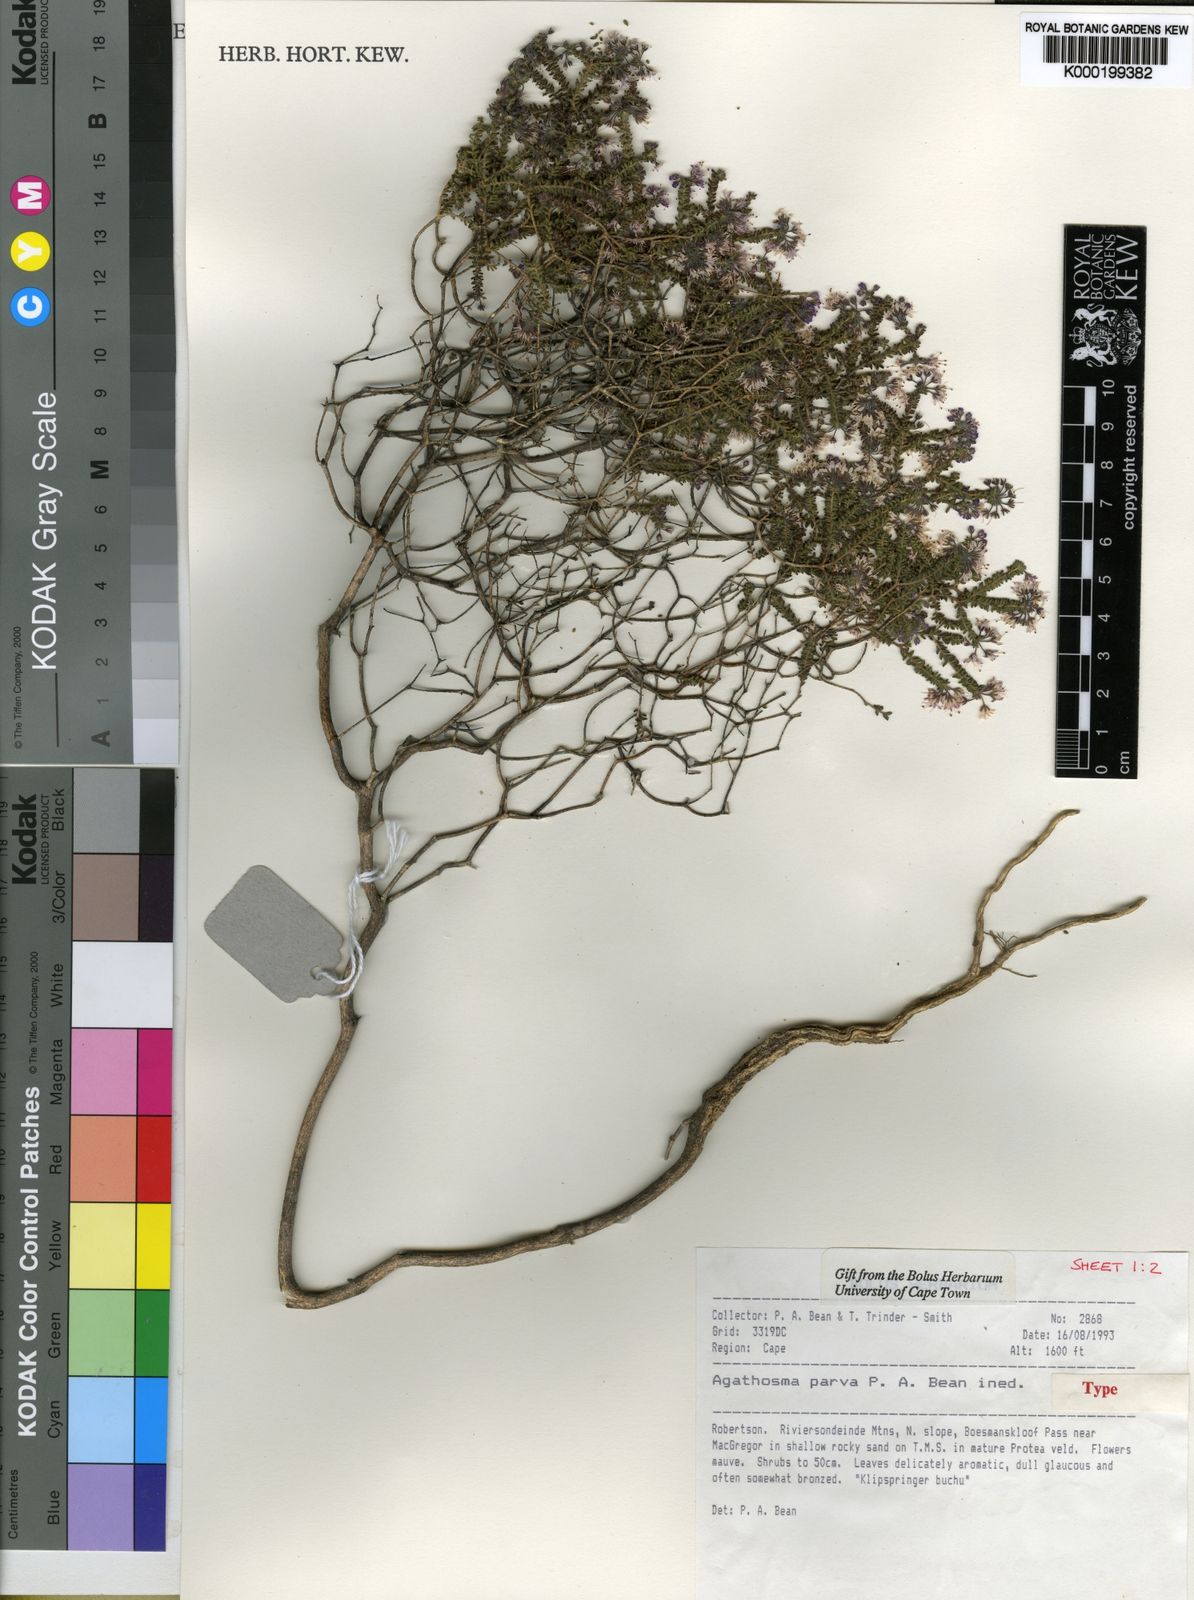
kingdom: Plantae
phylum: Tracheophyta
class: Magnoliopsida
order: Sapindales
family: Rutaceae
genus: Agathosma
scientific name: Agathosma
